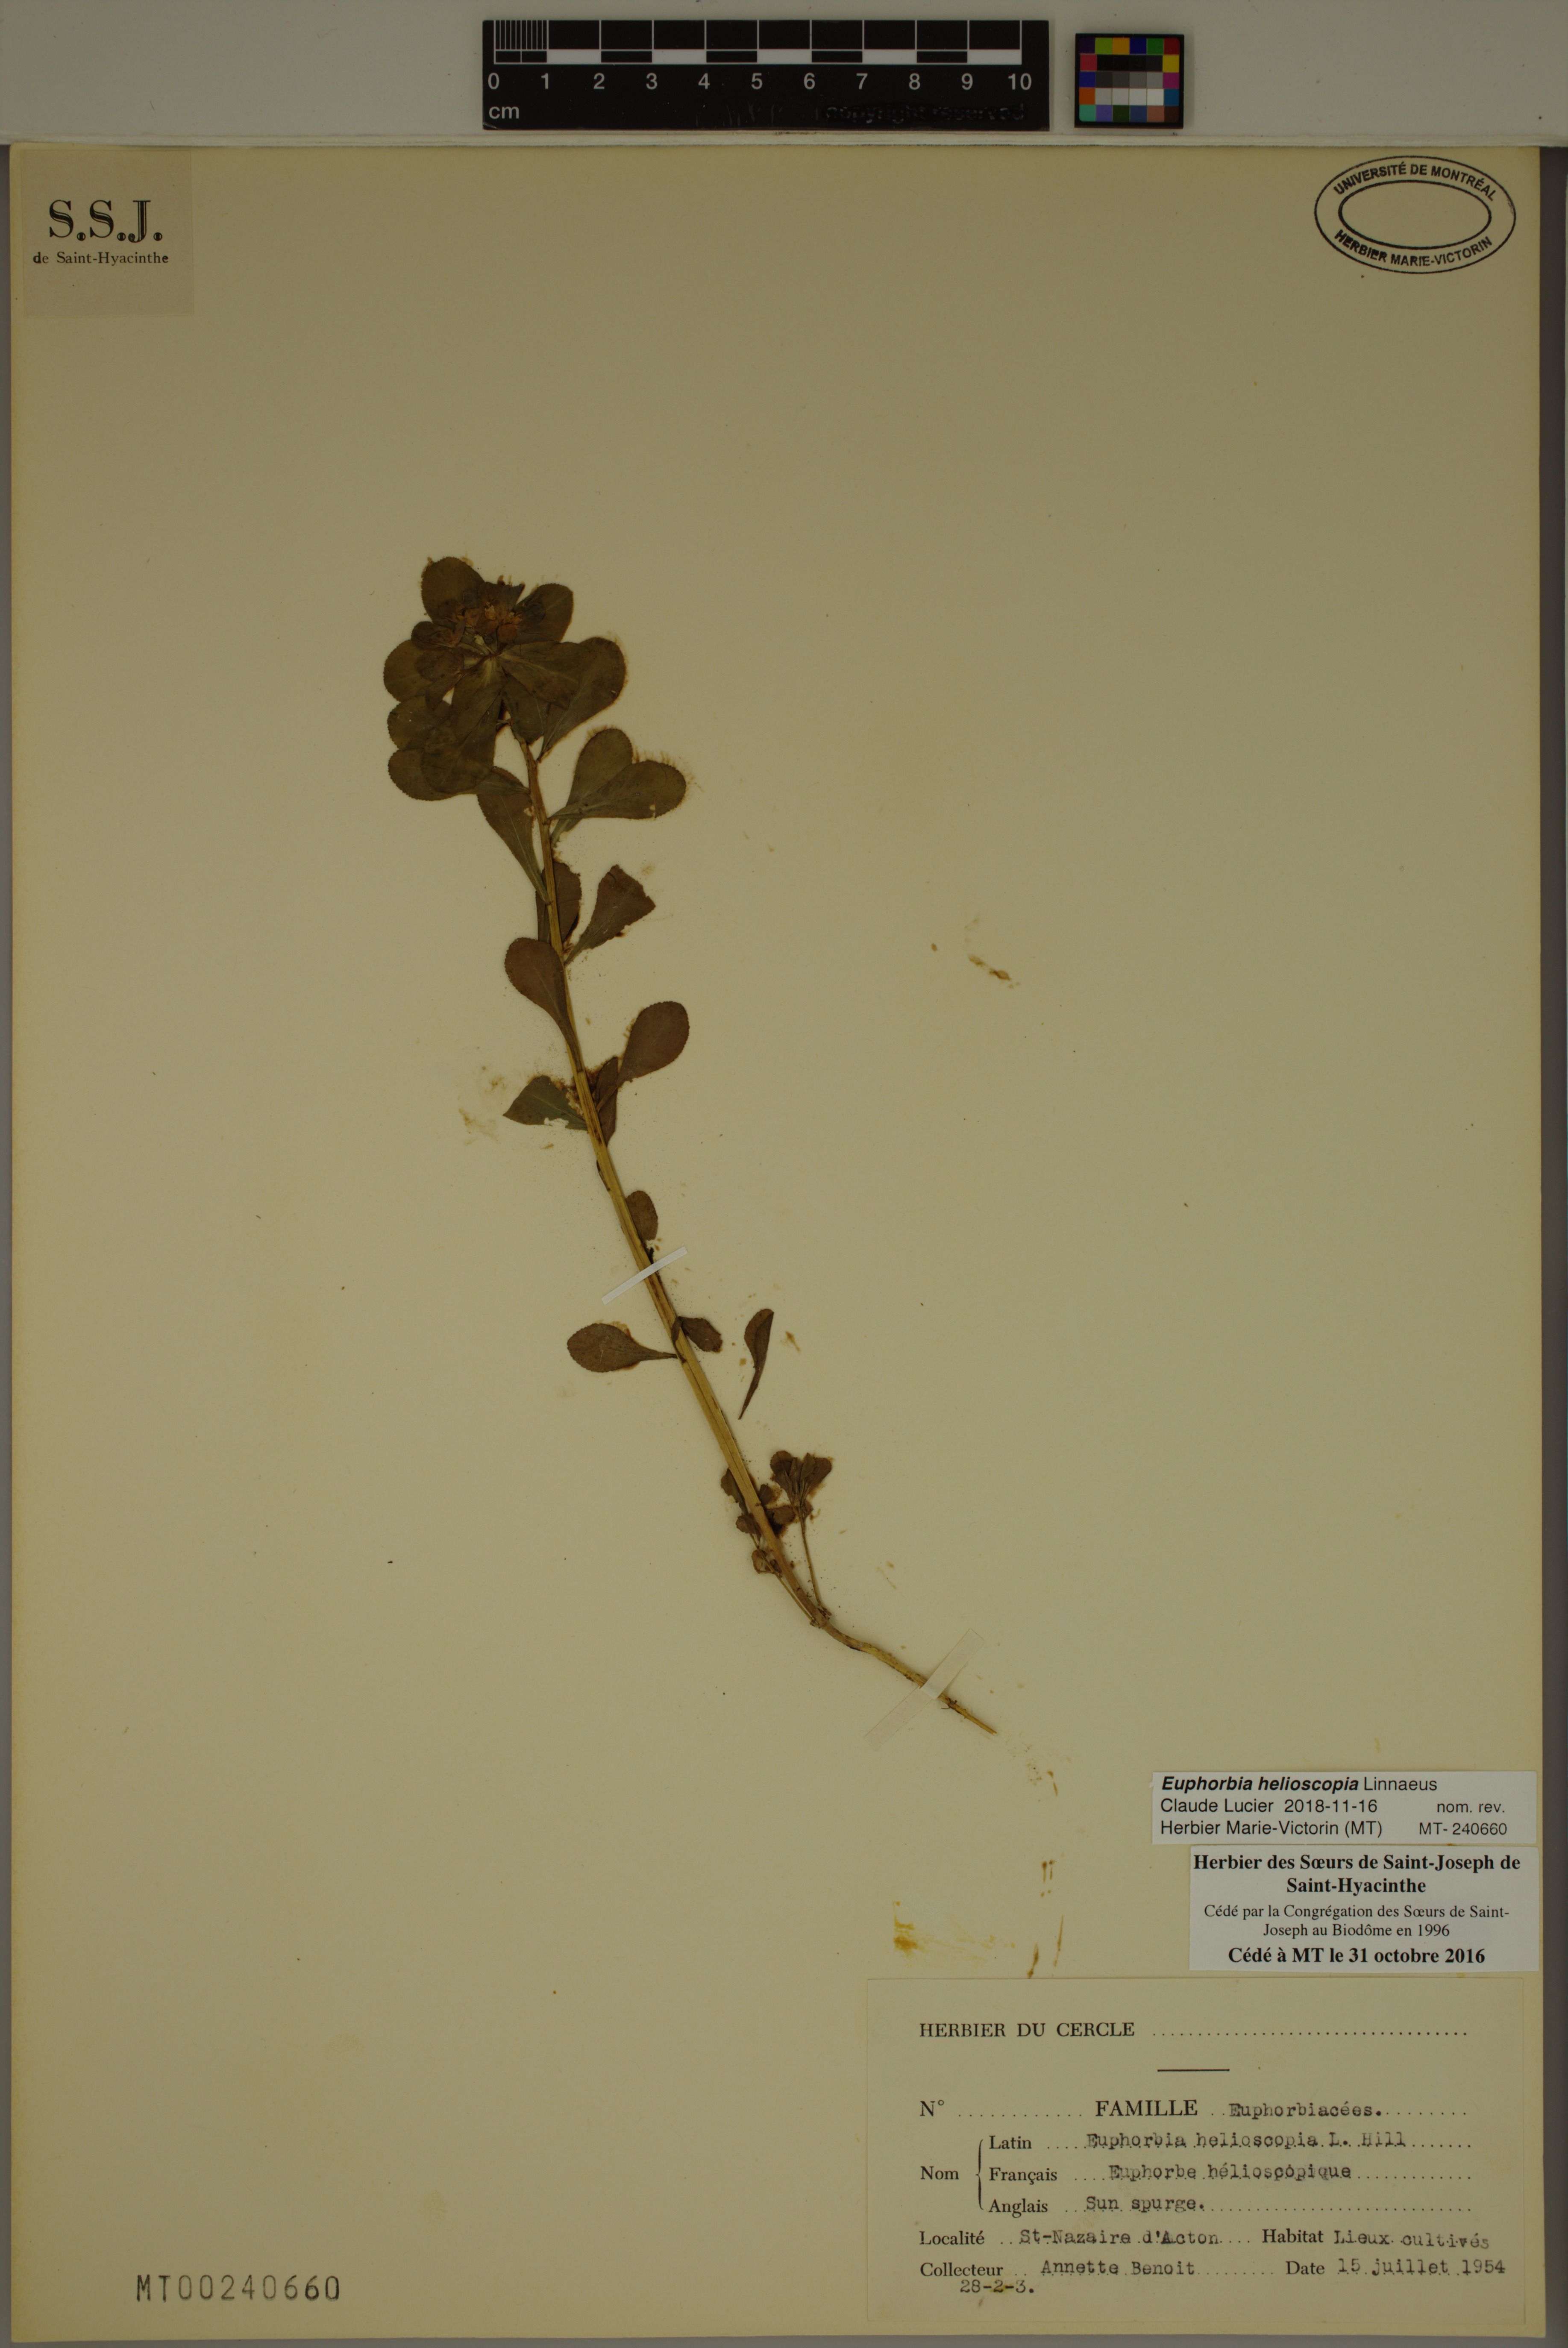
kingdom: Plantae
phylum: Tracheophyta
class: Magnoliopsida
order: Malpighiales
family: Euphorbiaceae
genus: Euphorbia
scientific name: Euphorbia helioscopia
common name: Sun spurge
